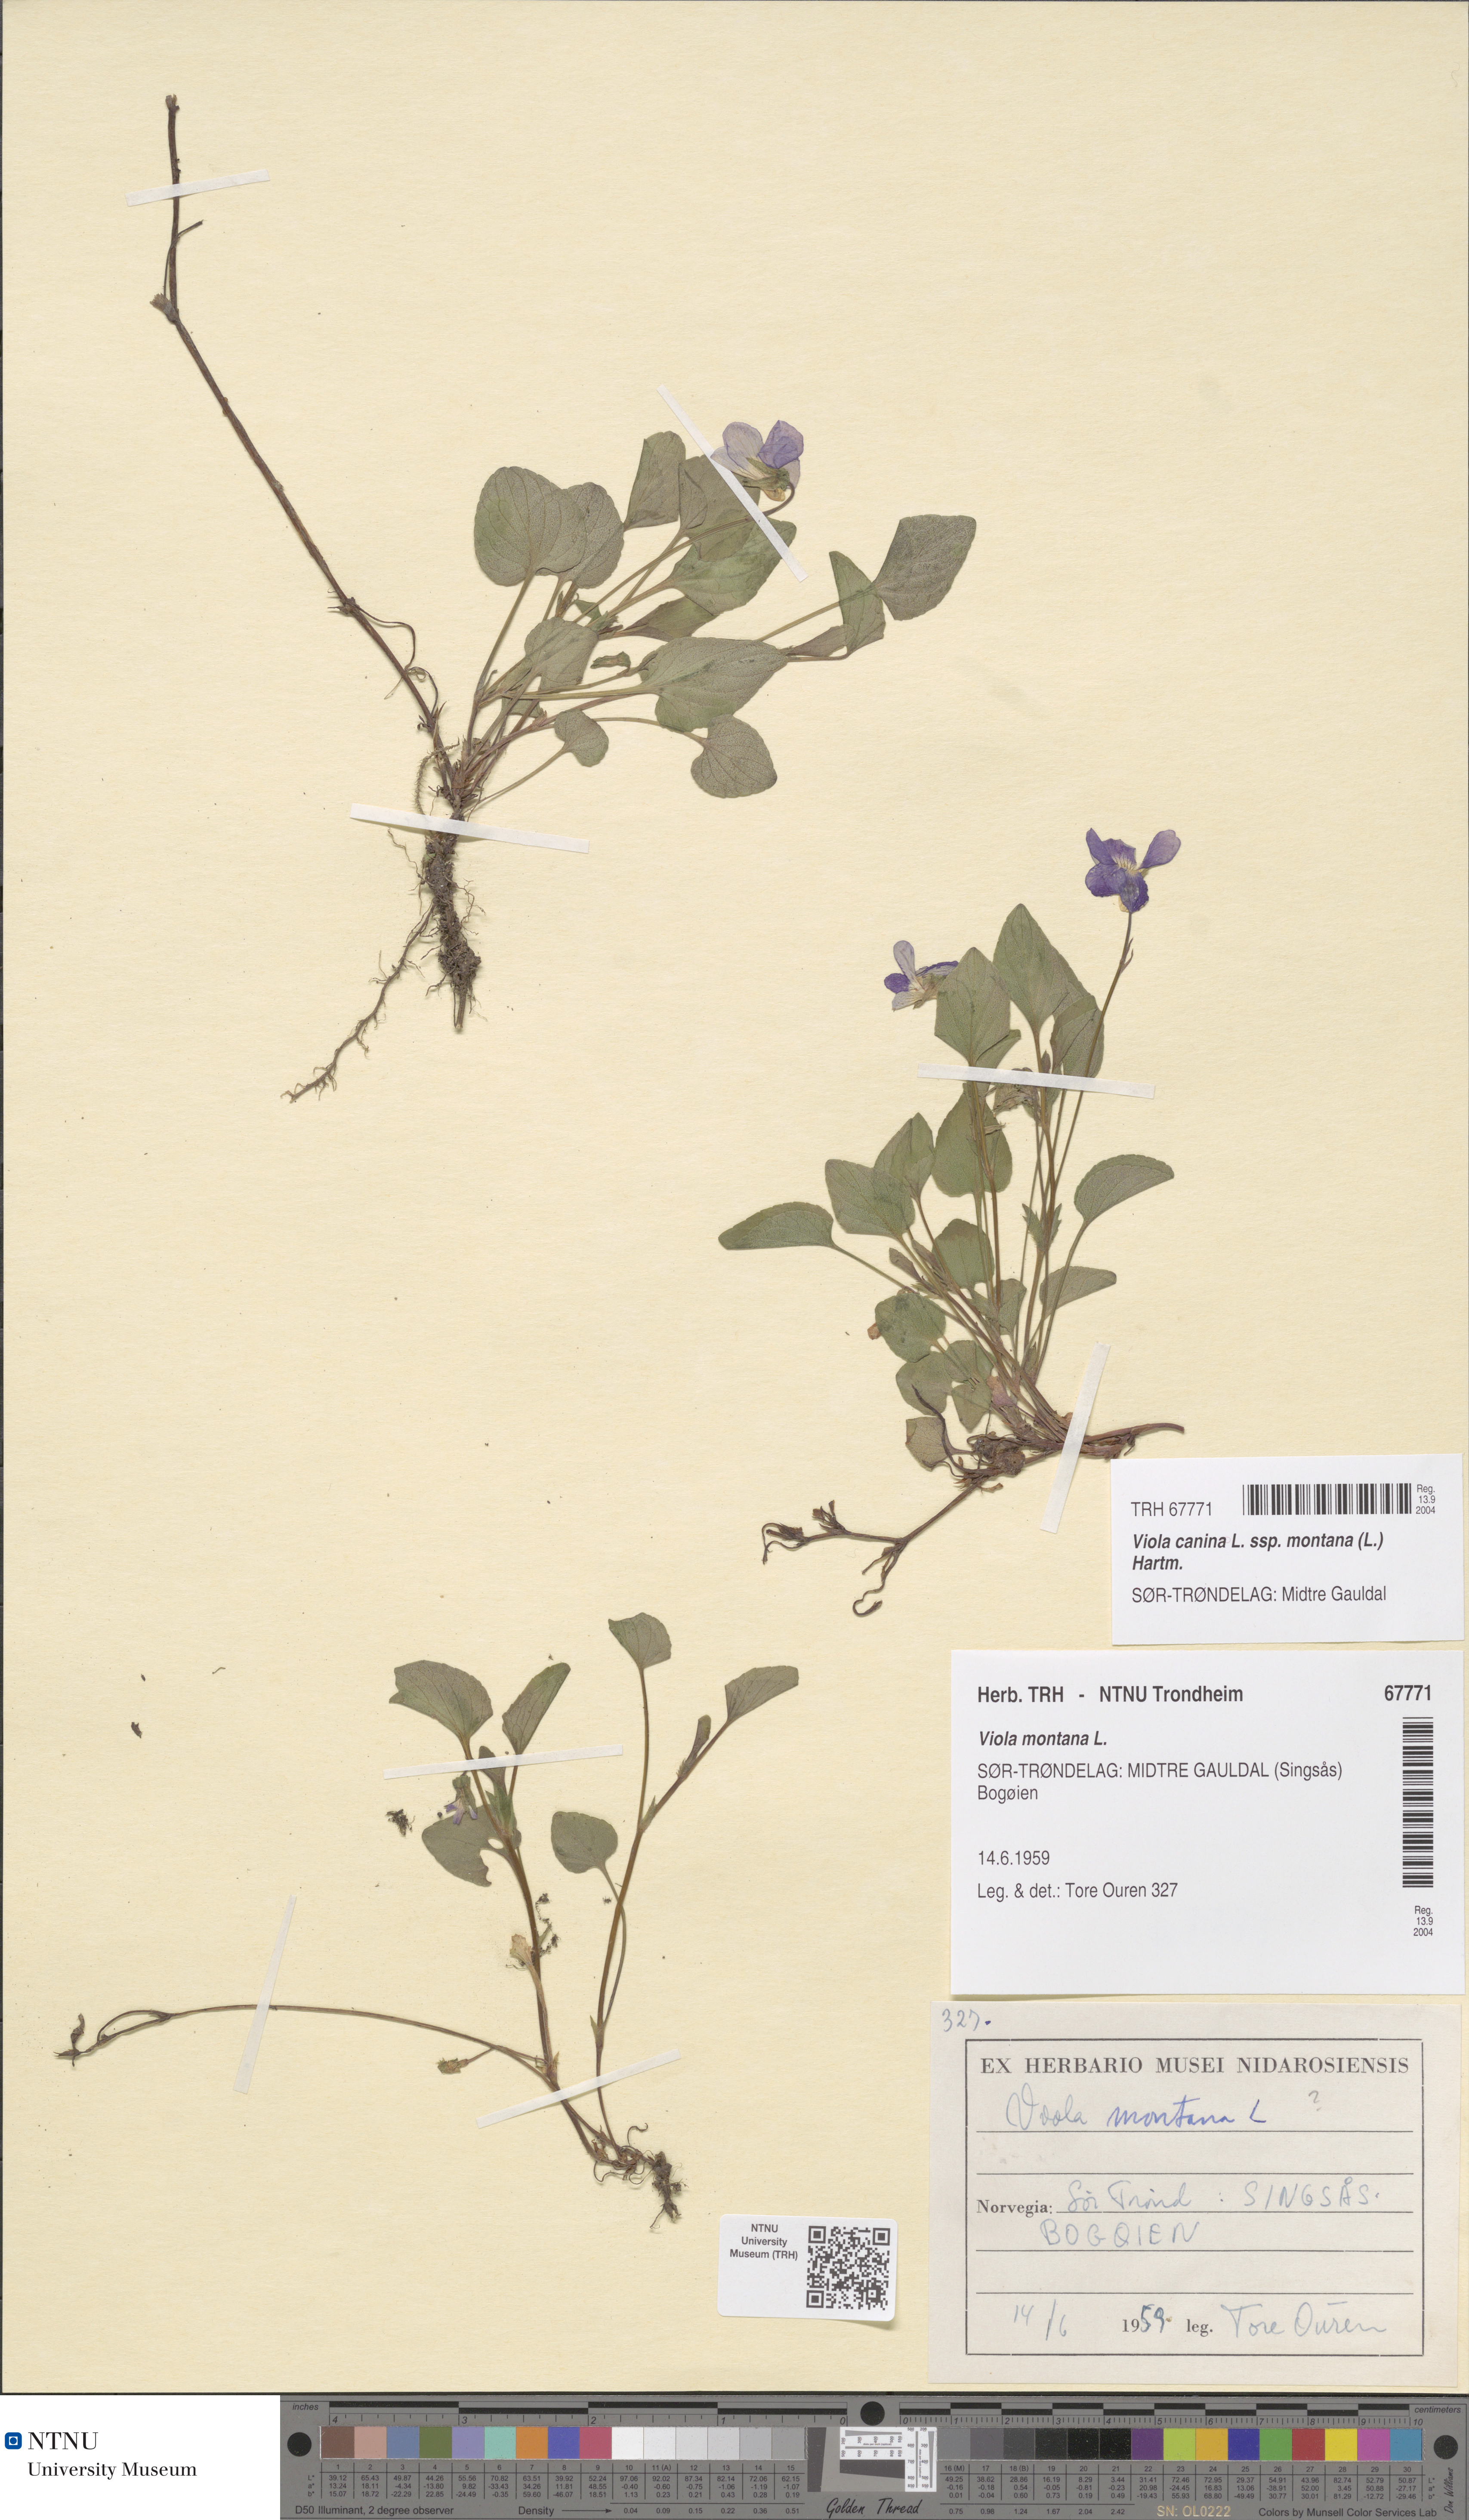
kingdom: Plantae
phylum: Tracheophyta
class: Magnoliopsida
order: Malpighiales
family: Violaceae
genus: Viola
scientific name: Viola ruppii
